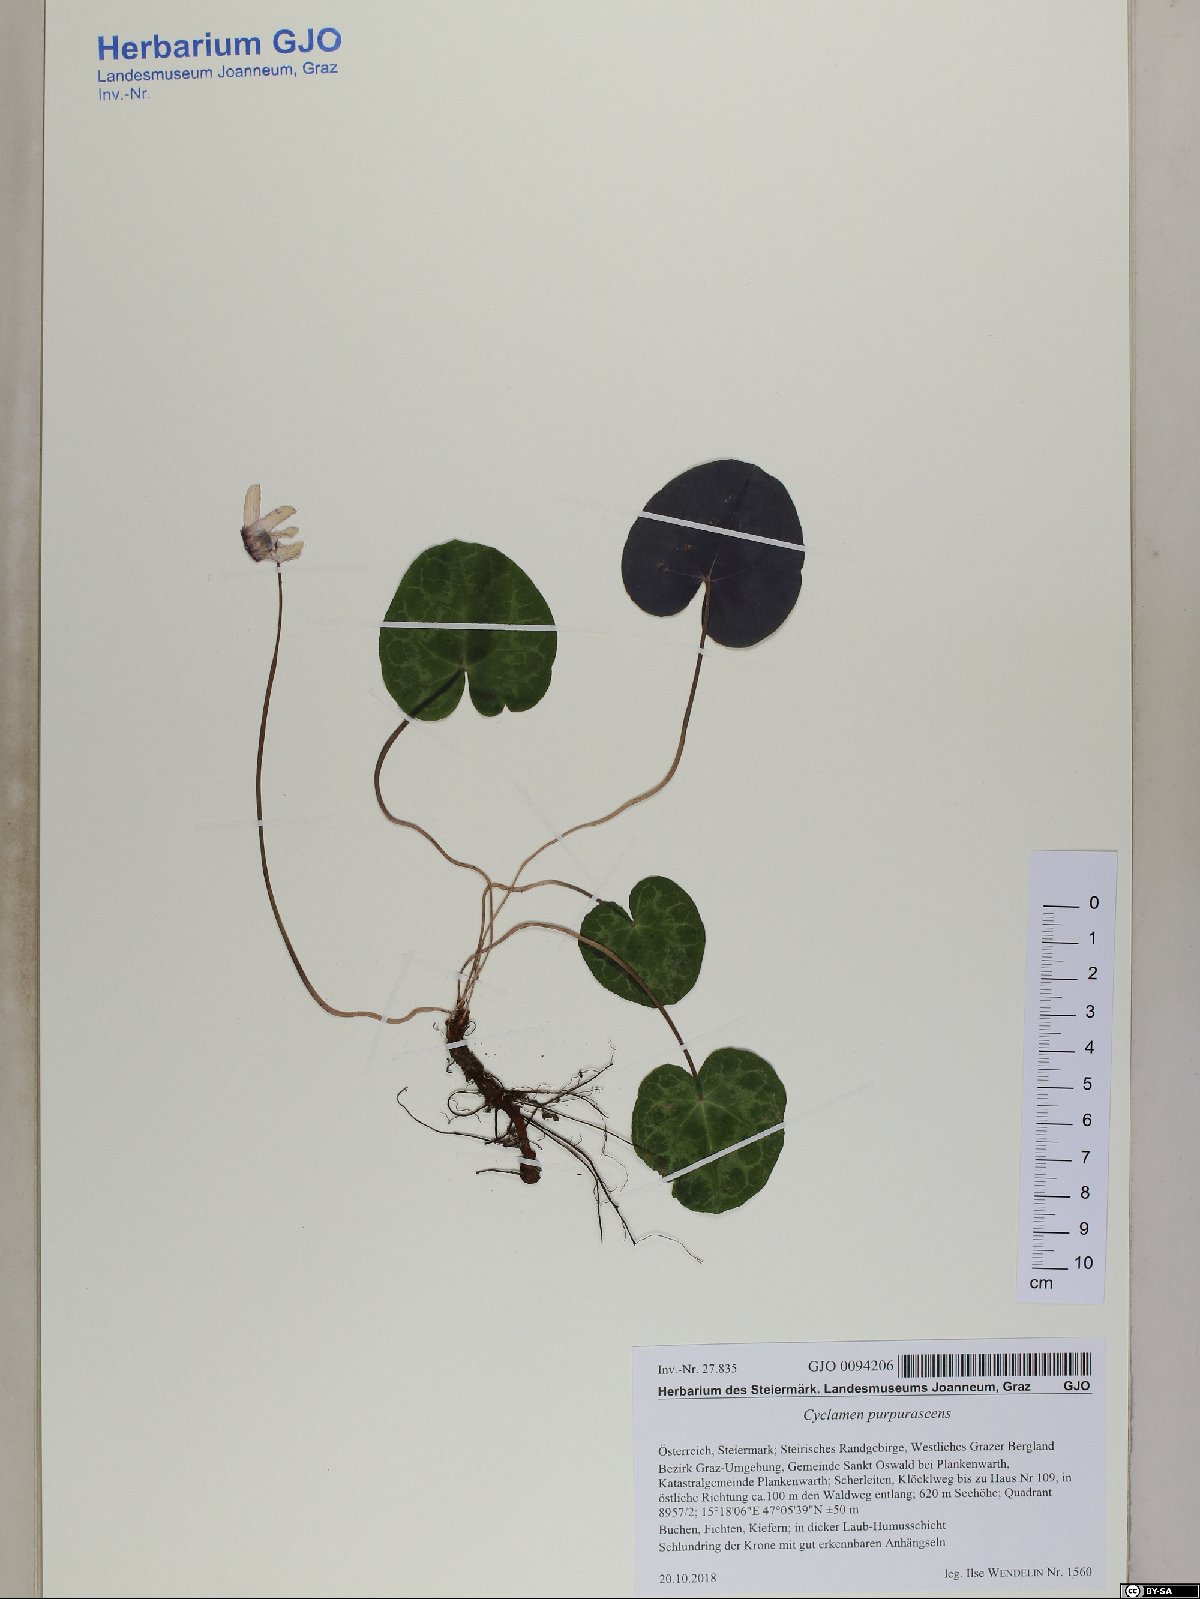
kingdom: Plantae
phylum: Tracheophyta
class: Magnoliopsida
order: Ericales
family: Primulaceae
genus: Cyclamen
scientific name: Cyclamen purpurascens
